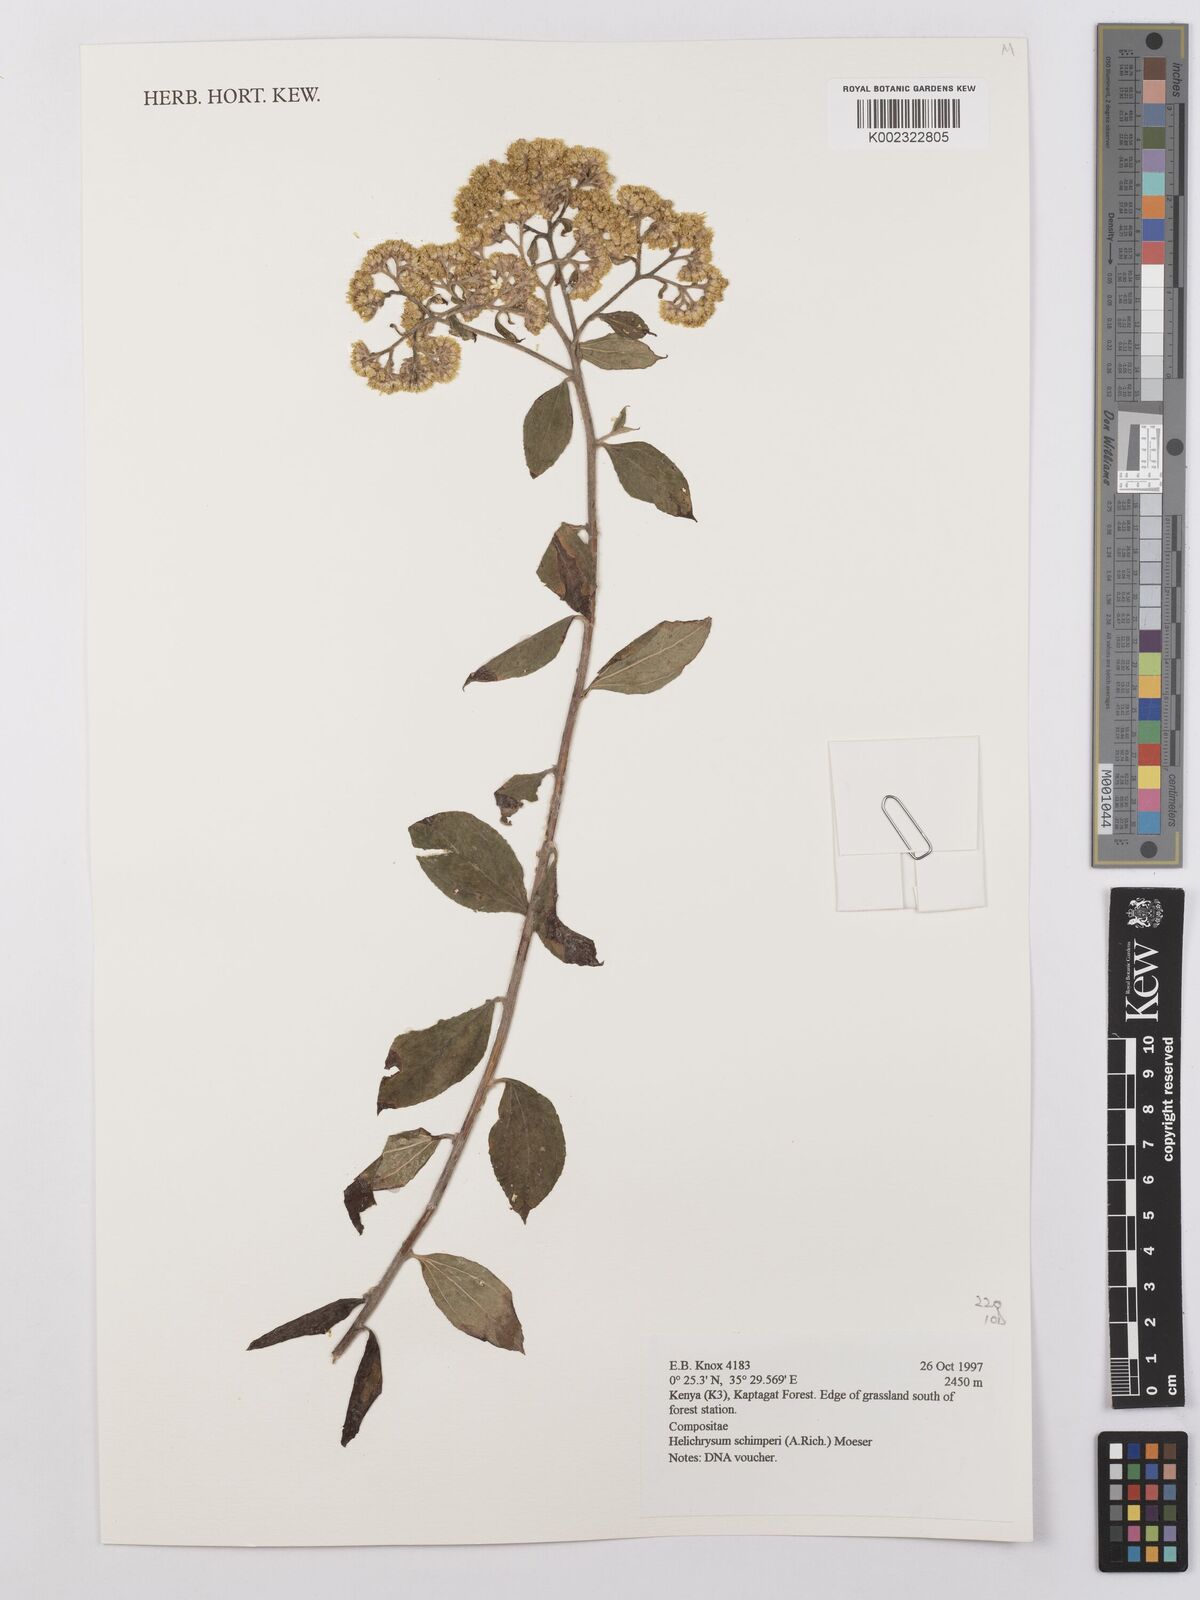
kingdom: Plantae
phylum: Tracheophyta
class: Magnoliopsida
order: Asterales
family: Asteraceae
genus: Helichrysum
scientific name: Helichrysum schimperi
